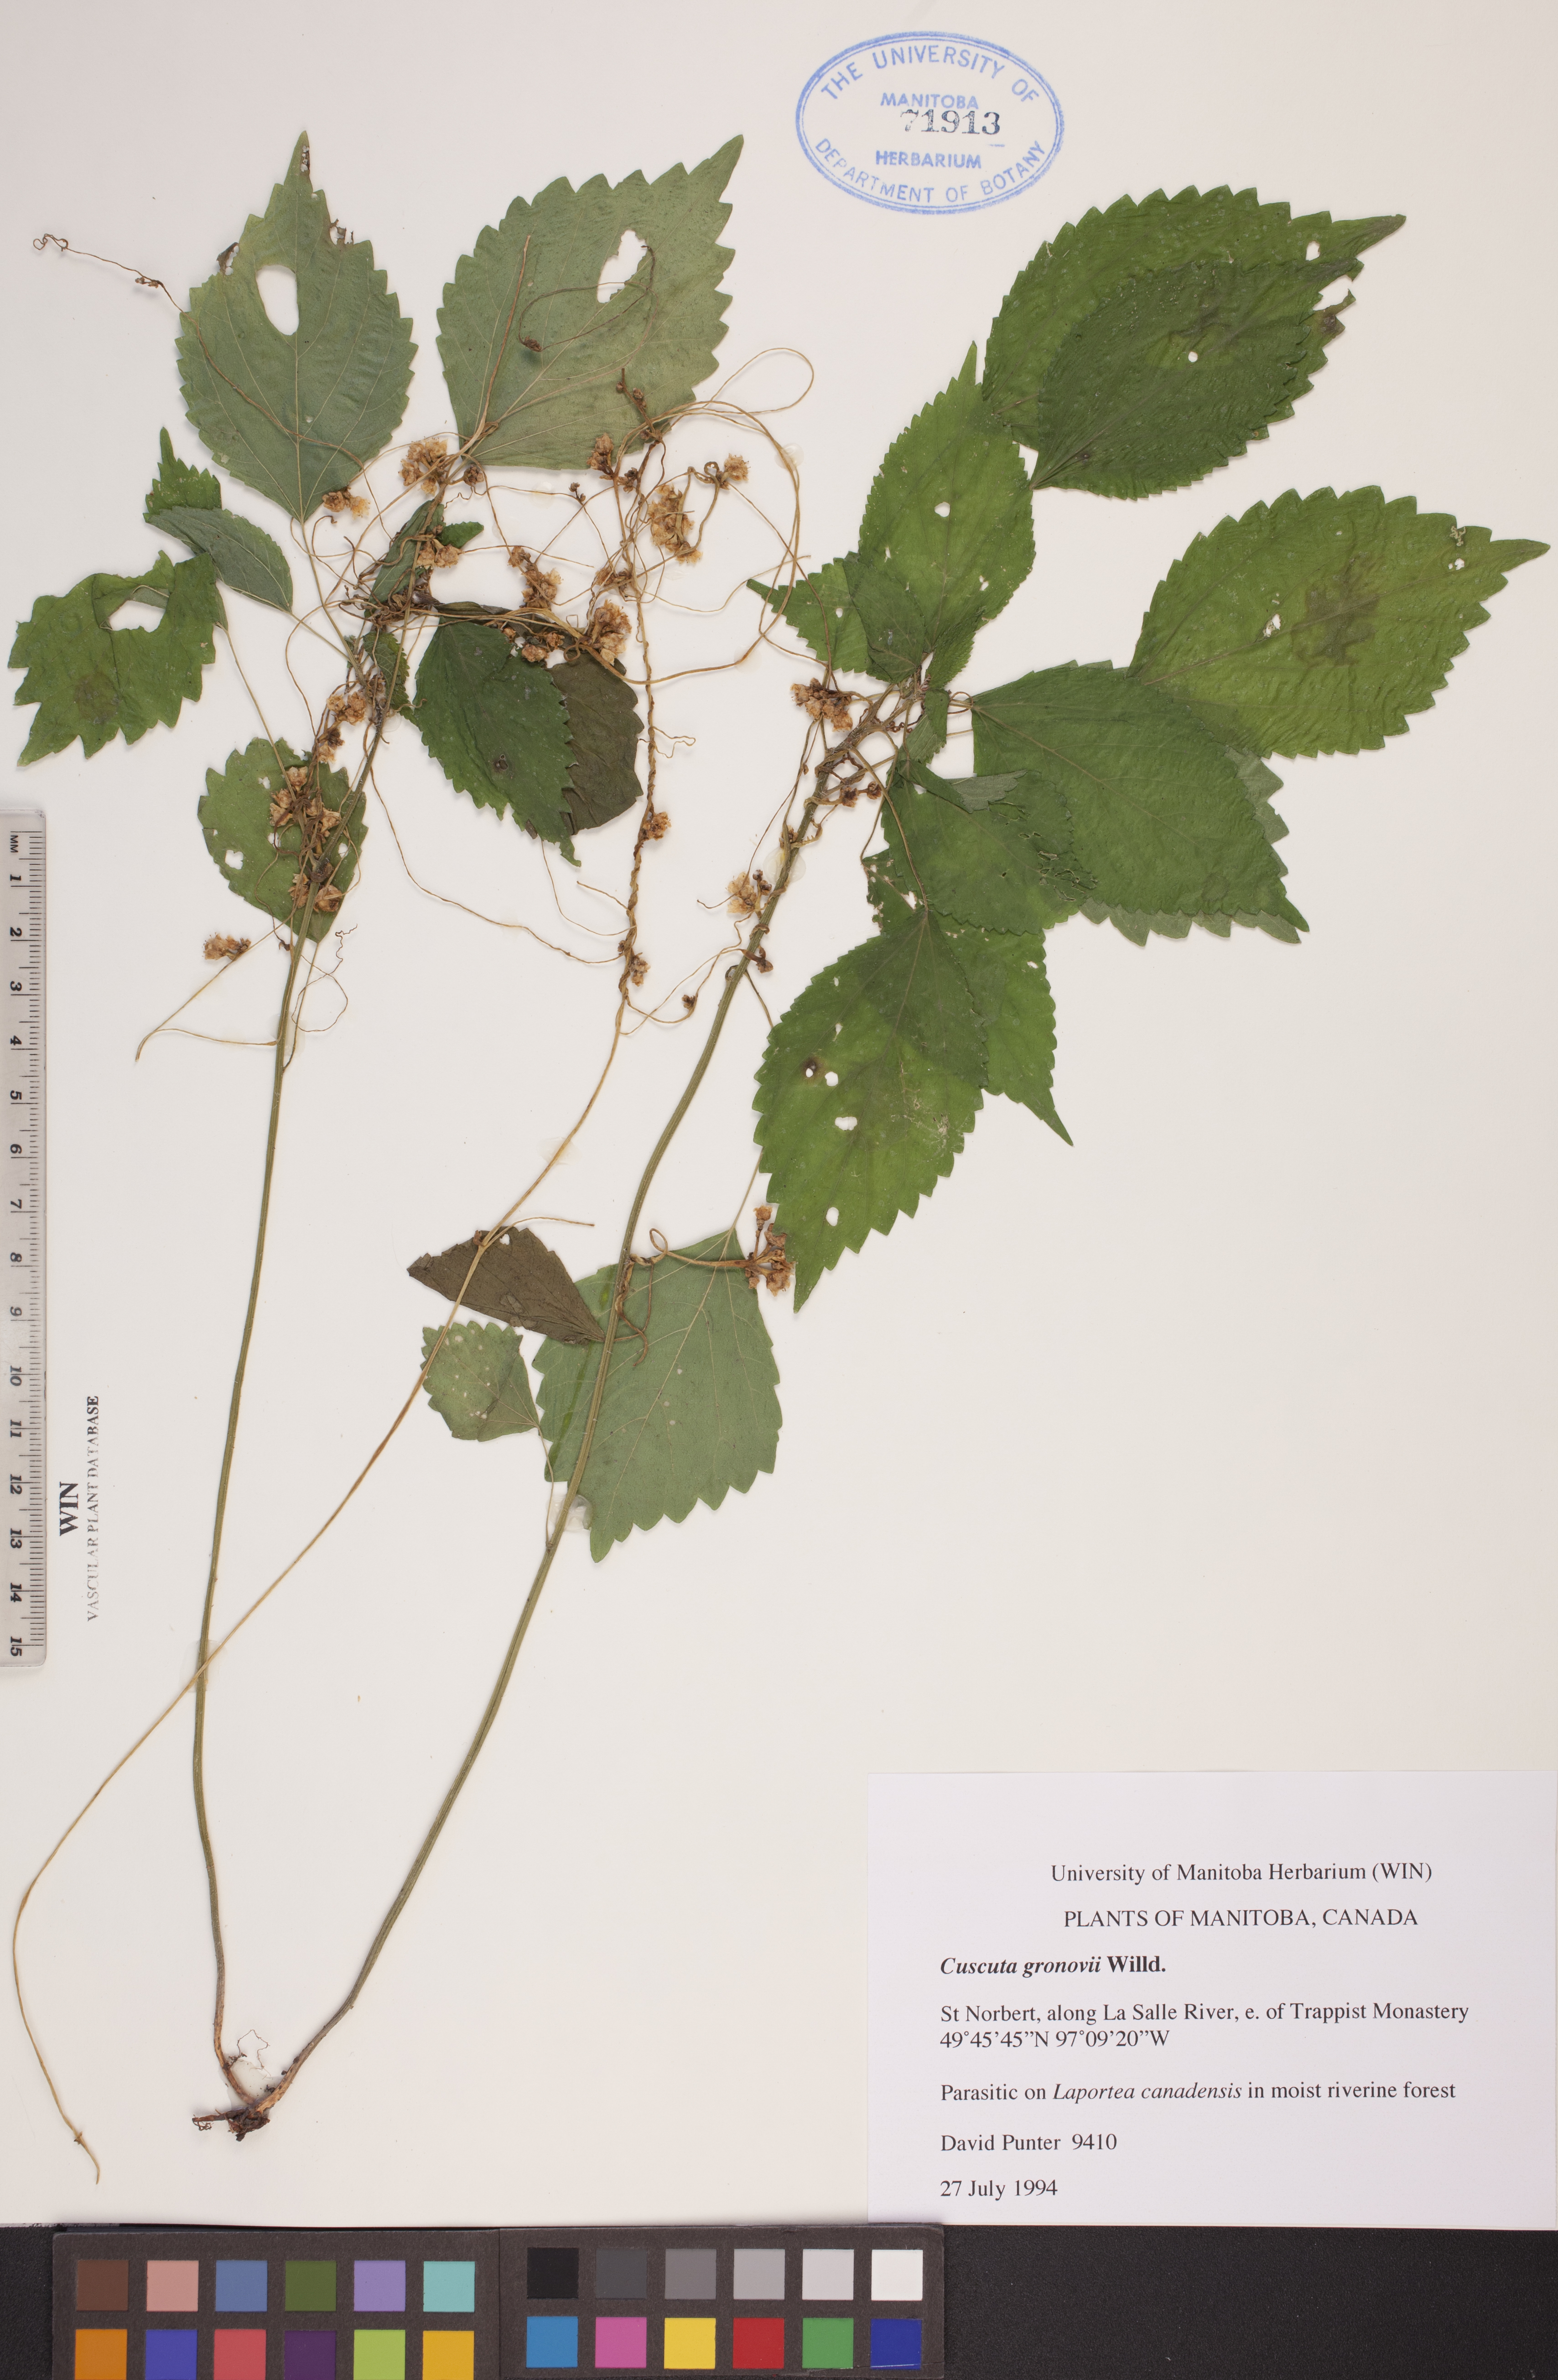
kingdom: Plantae
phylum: Tracheophyta
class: Magnoliopsida
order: Solanales
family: Convolvulaceae
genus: Cuscuta
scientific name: Cuscuta gronovii
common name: Common dodder
